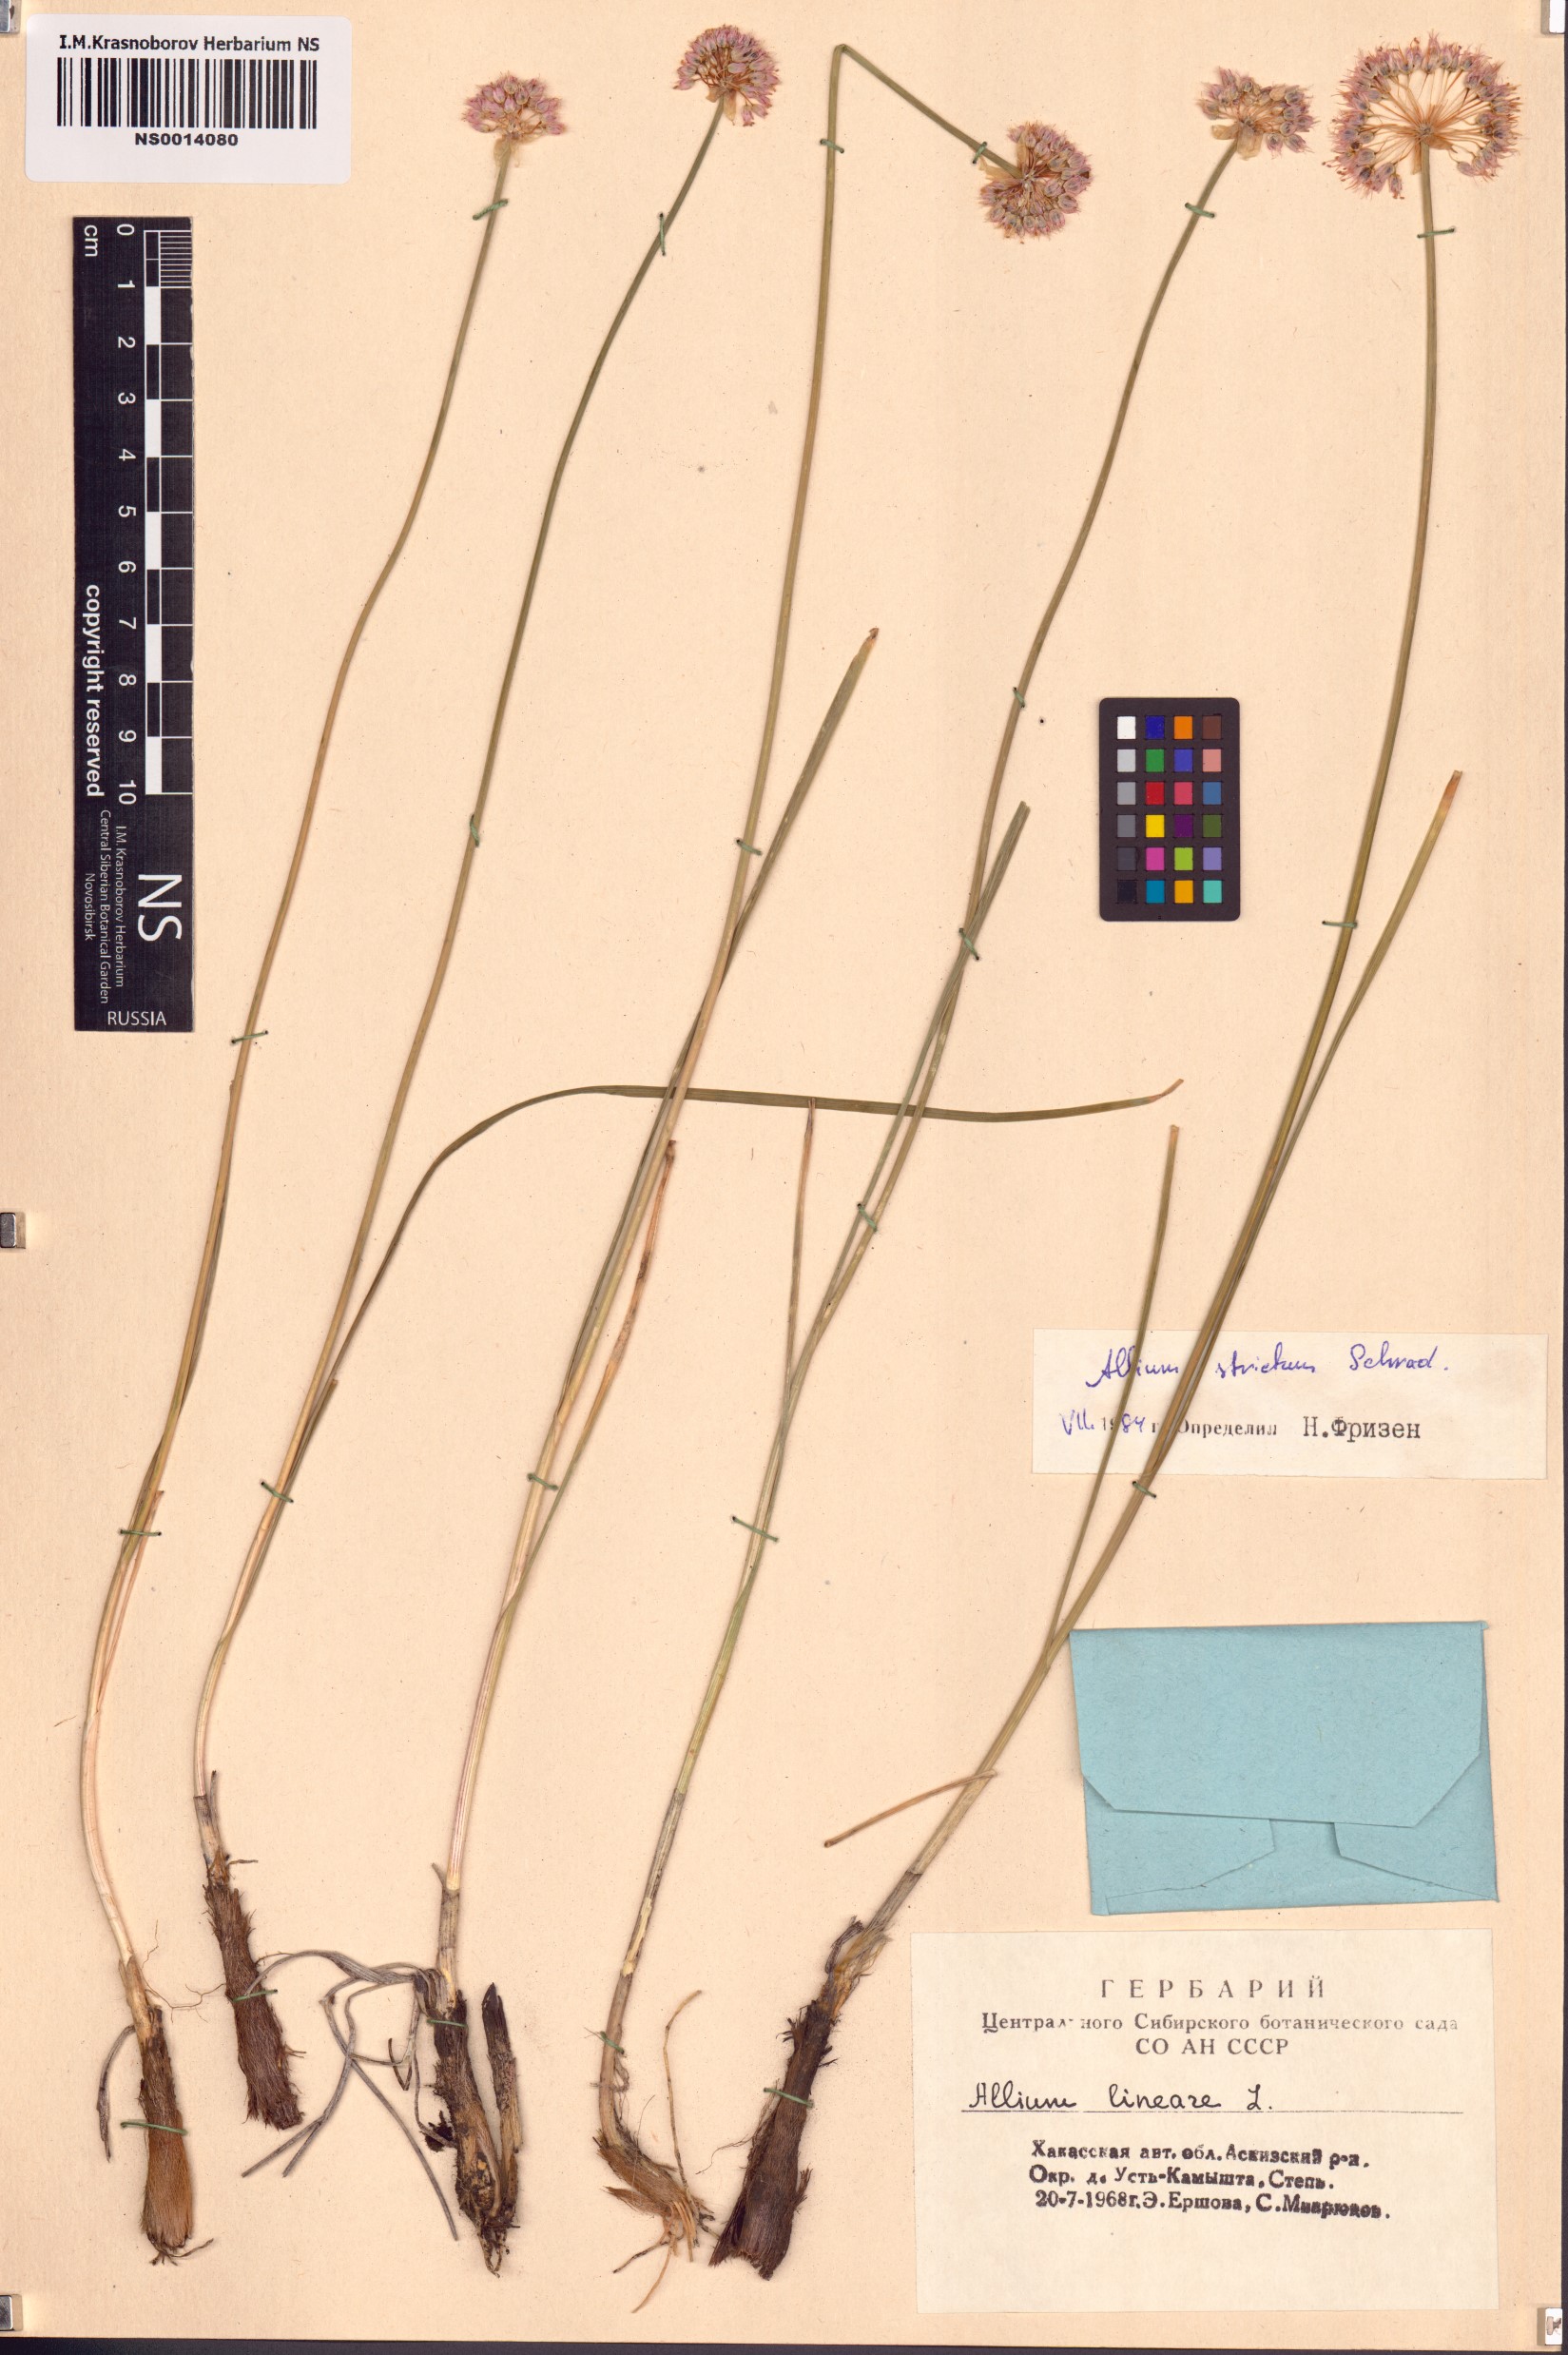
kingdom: Plantae
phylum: Tracheophyta
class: Liliopsida
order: Asparagales
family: Amaryllidaceae
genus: Allium
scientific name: Allium strictum
